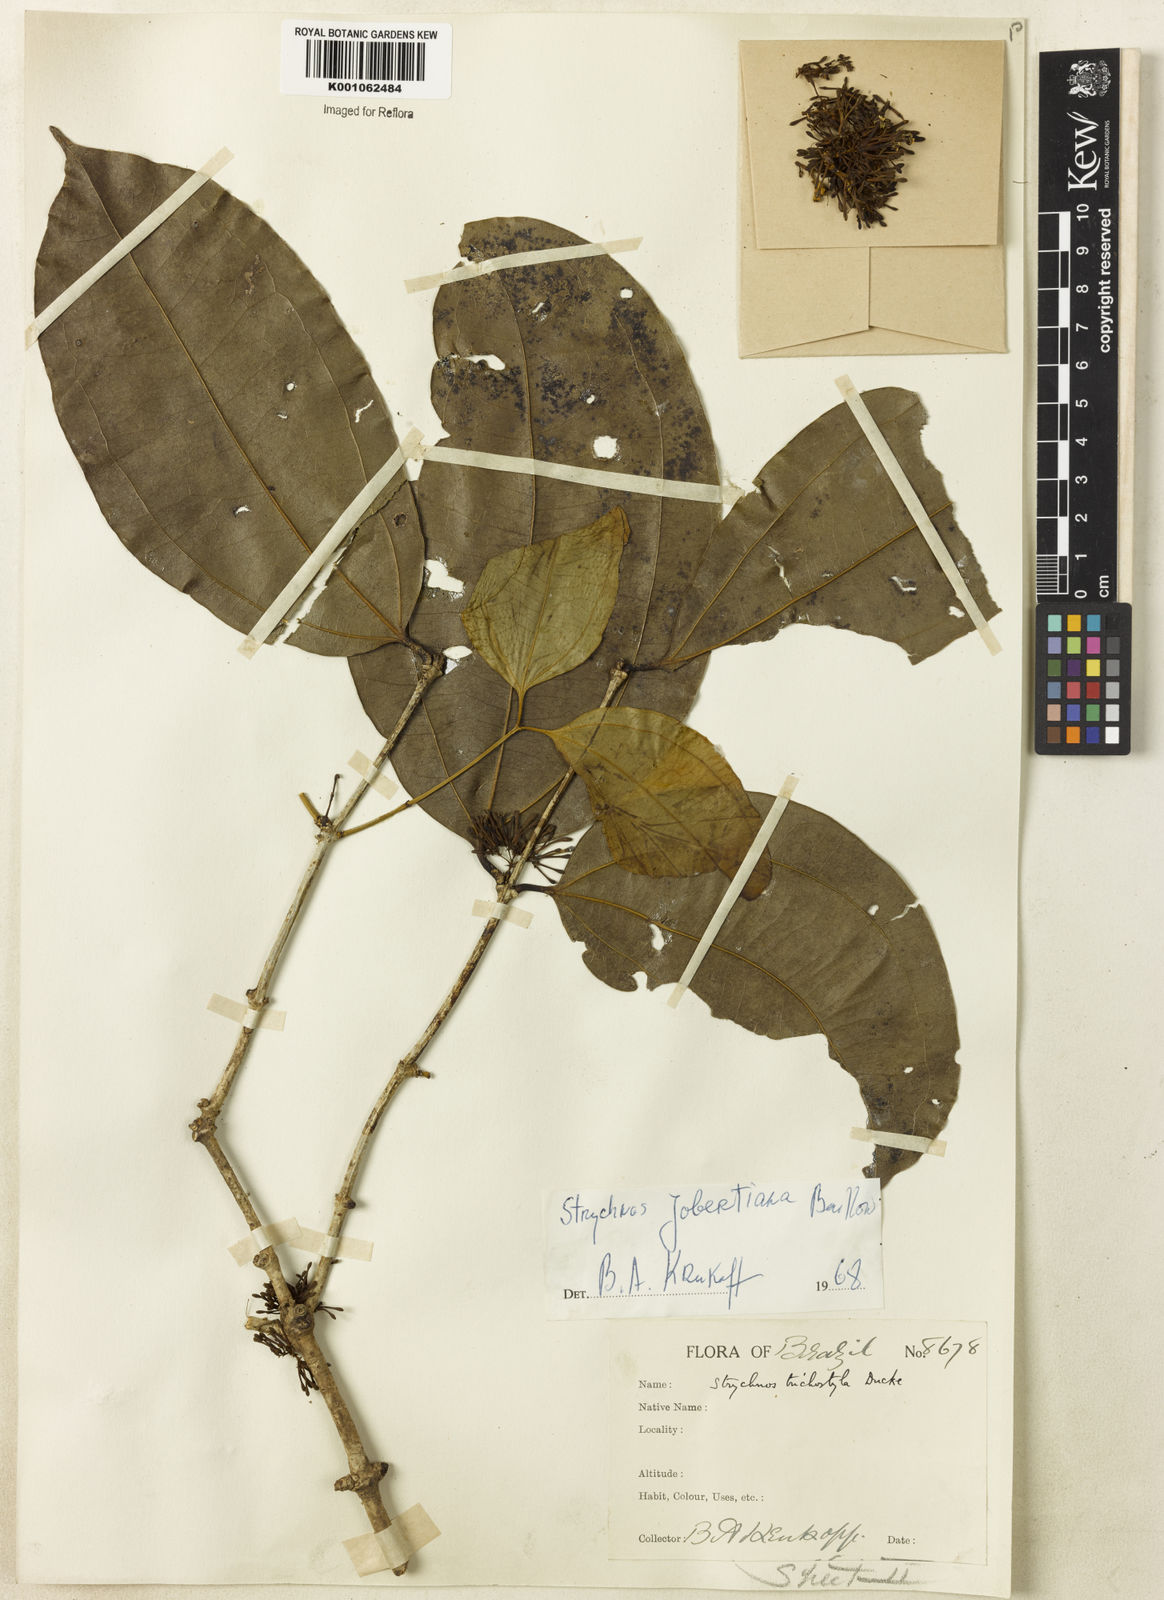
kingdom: Plantae
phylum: Tracheophyta
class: Magnoliopsida
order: Gentianales
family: Loganiaceae
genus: Strychnos
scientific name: Strychnos jobertiana
